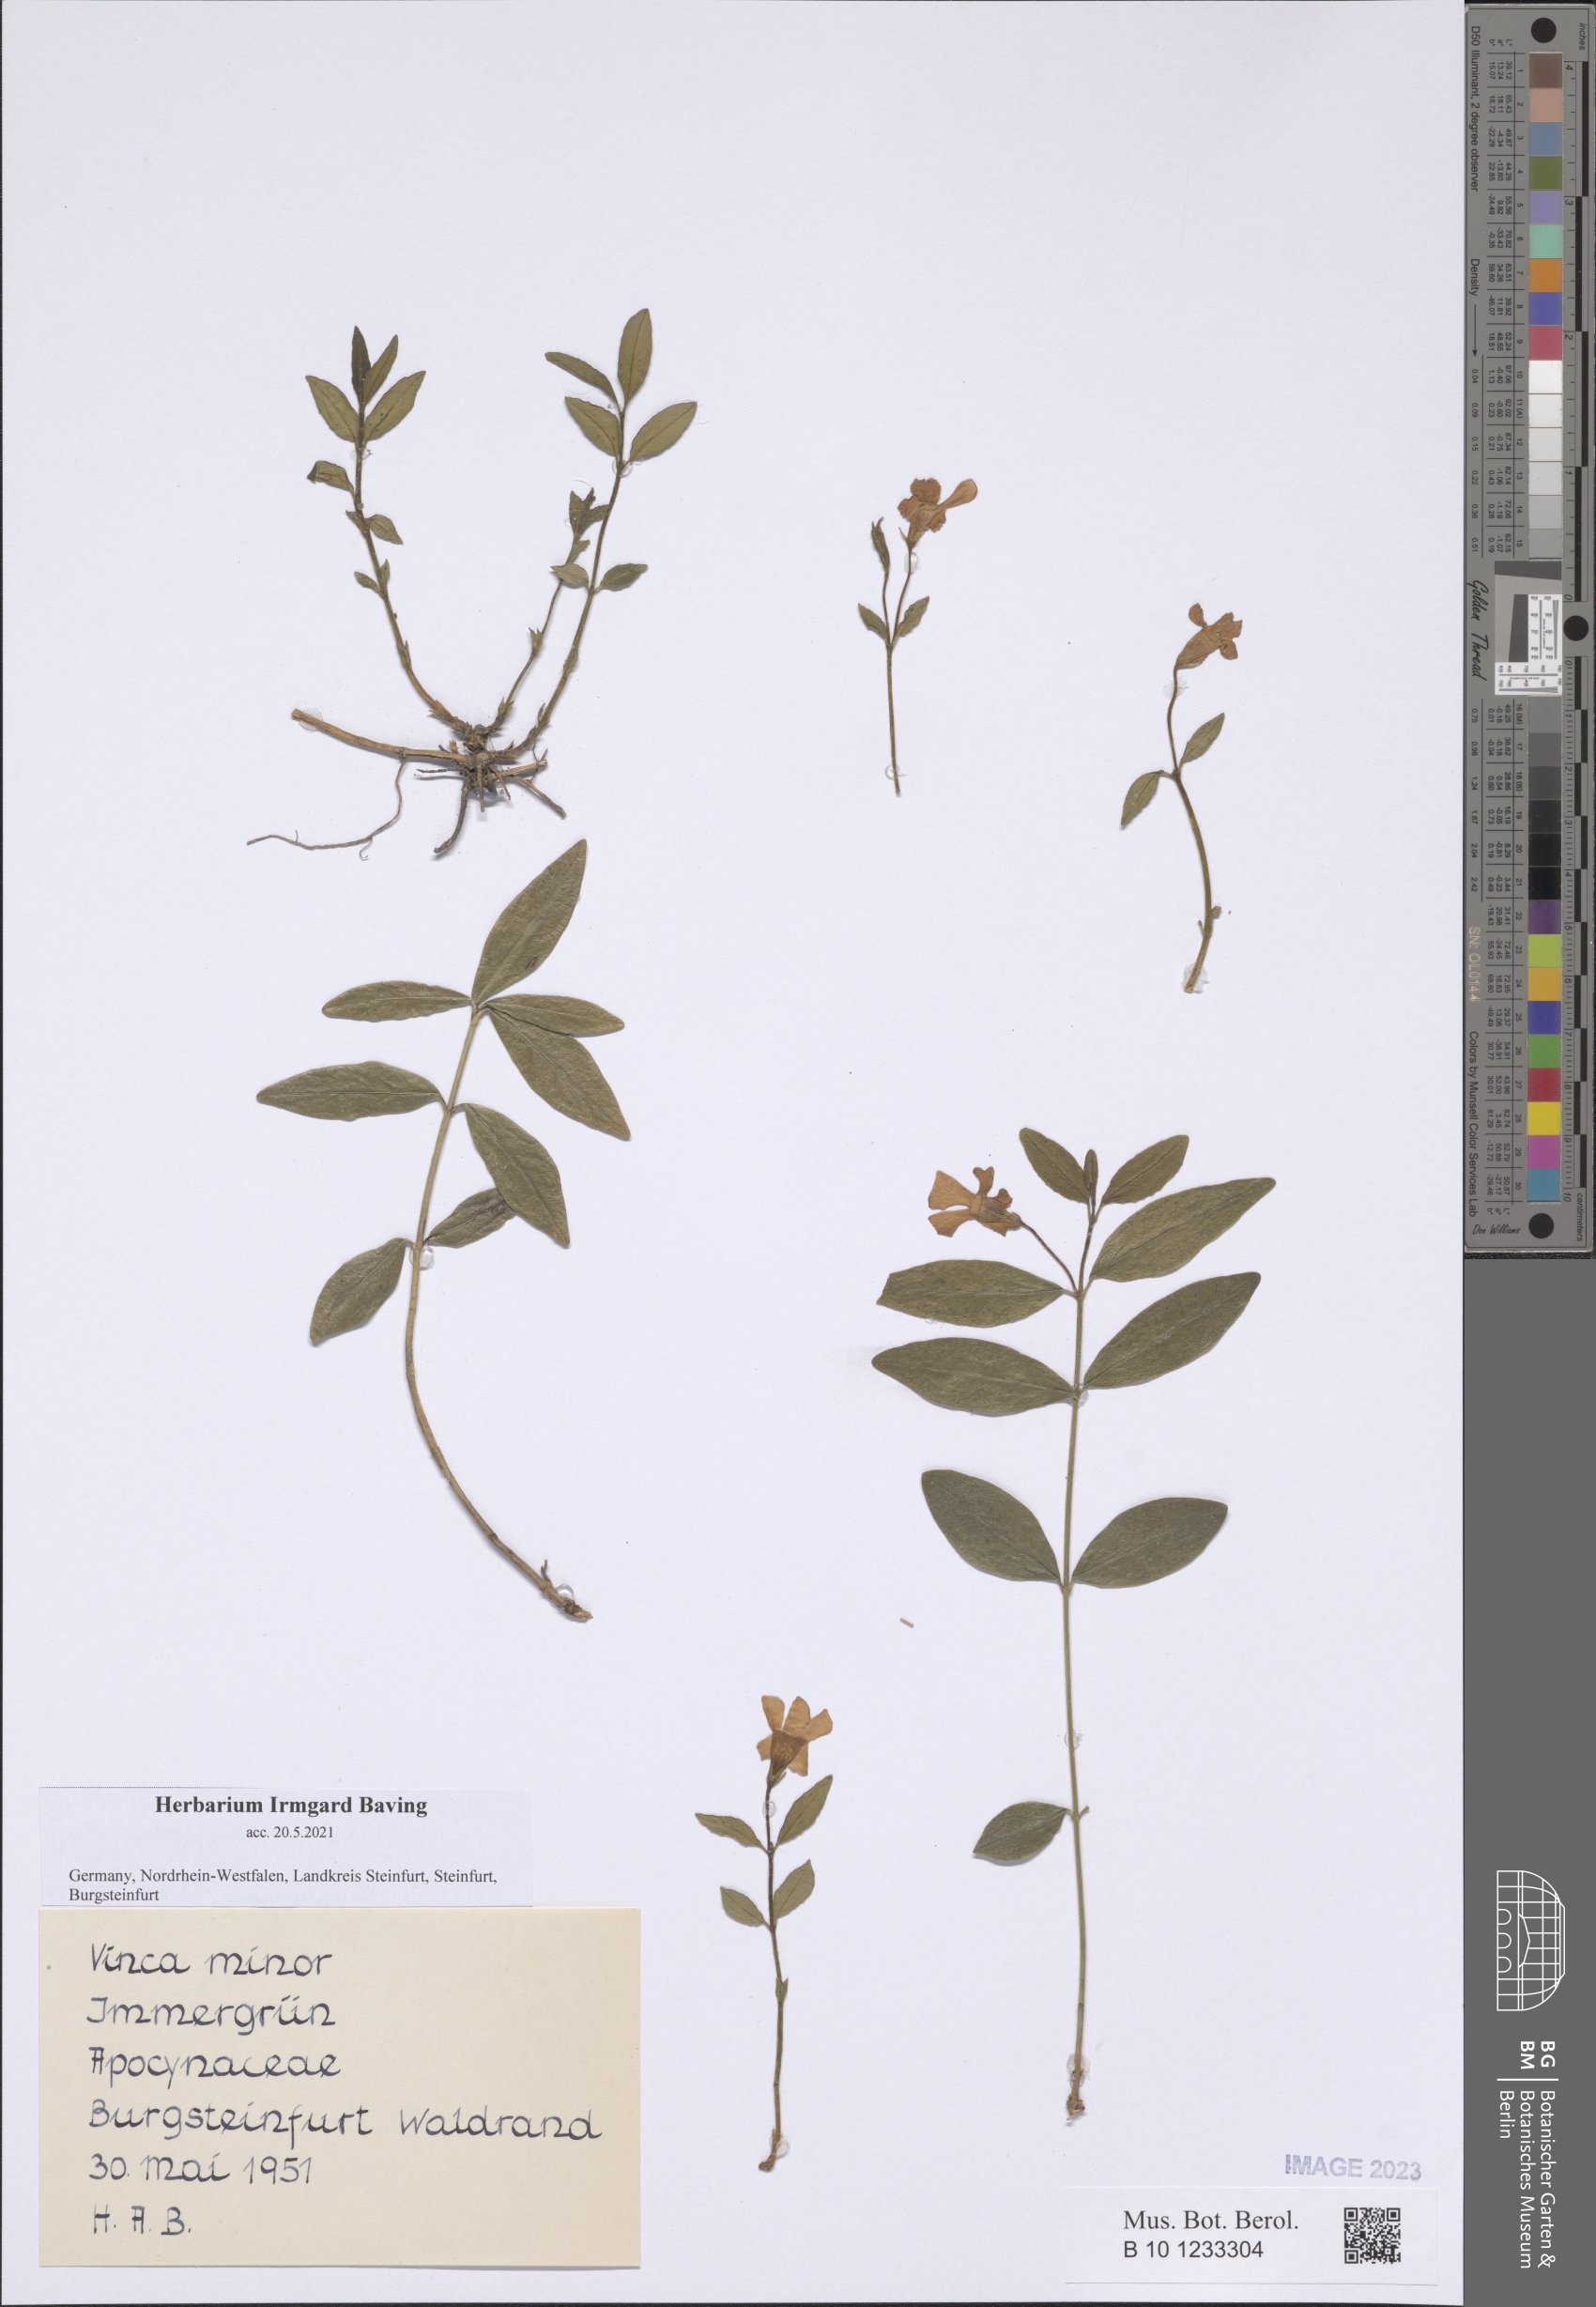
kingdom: Plantae
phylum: Tracheophyta
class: Magnoliopsida
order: Gentianales
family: Apocynaceae
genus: Vinca
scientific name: Vinca minor
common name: Lesser periwinkle
